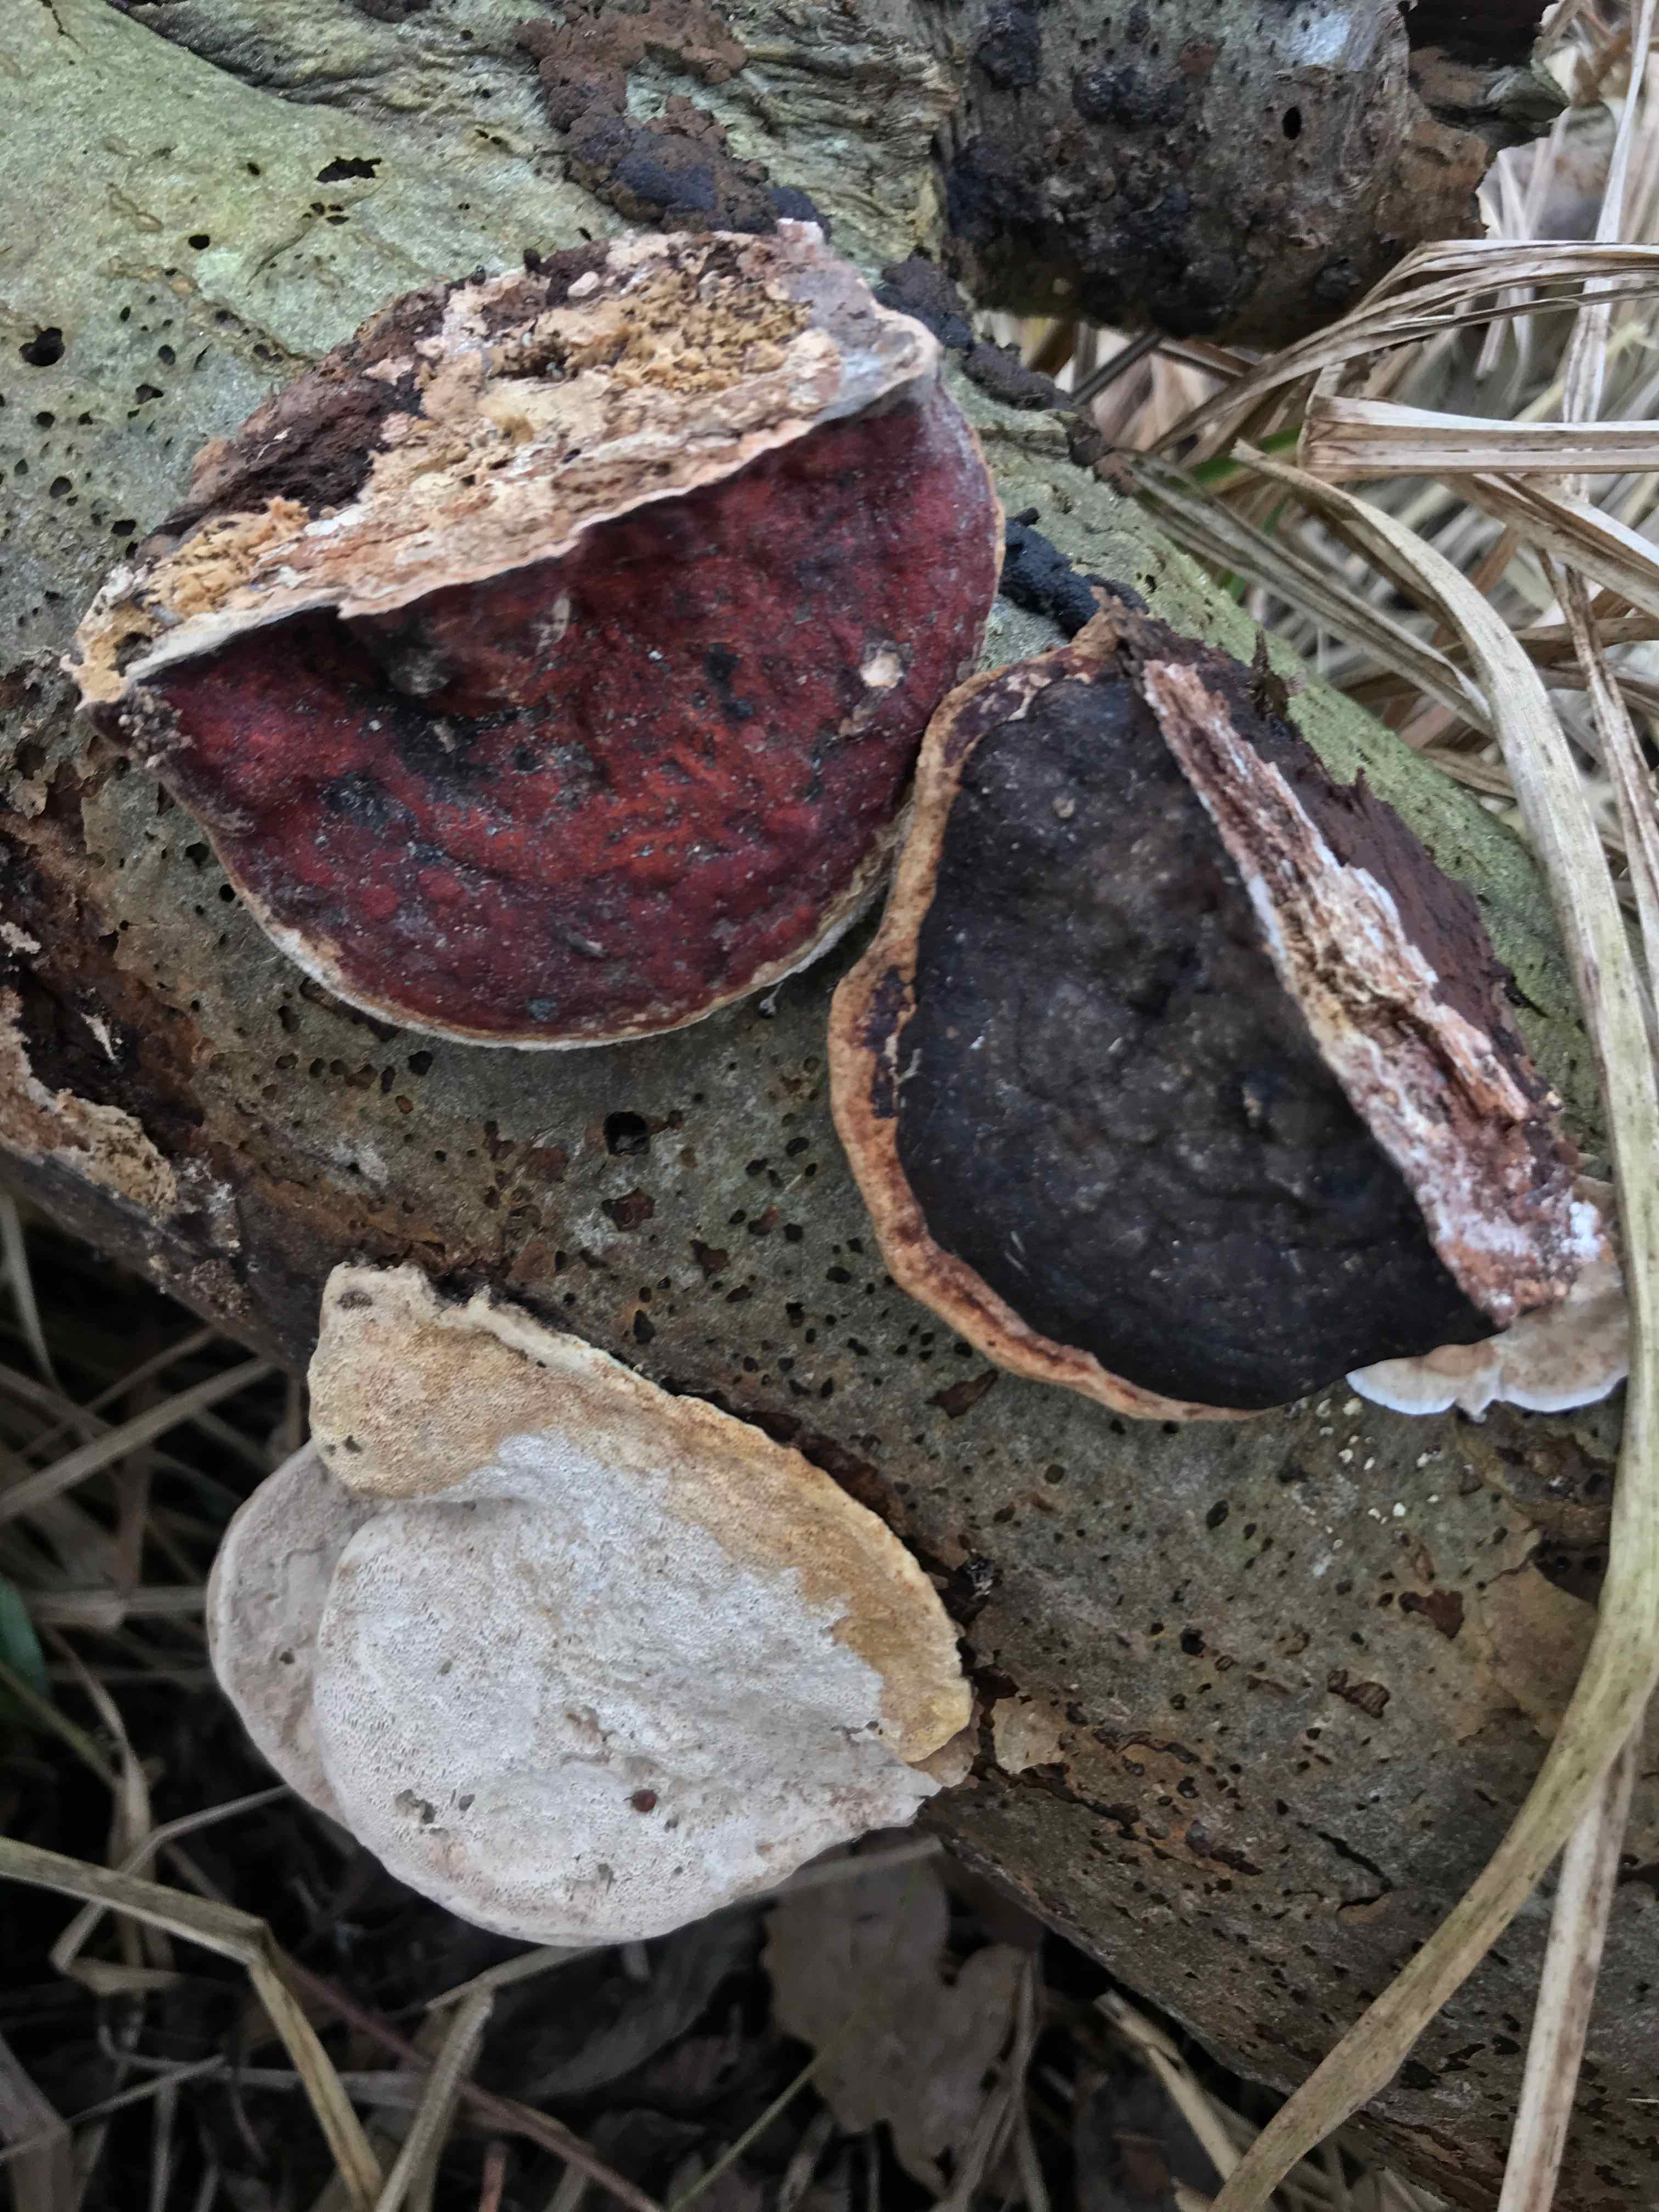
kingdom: Fungi
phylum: Basidiomycota
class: Agaricomycetes
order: Polyporales
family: Fomitopsidaceae
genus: Fomitopsis
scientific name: Fomitopsis pinicola
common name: randbæltet hovporesvamp
